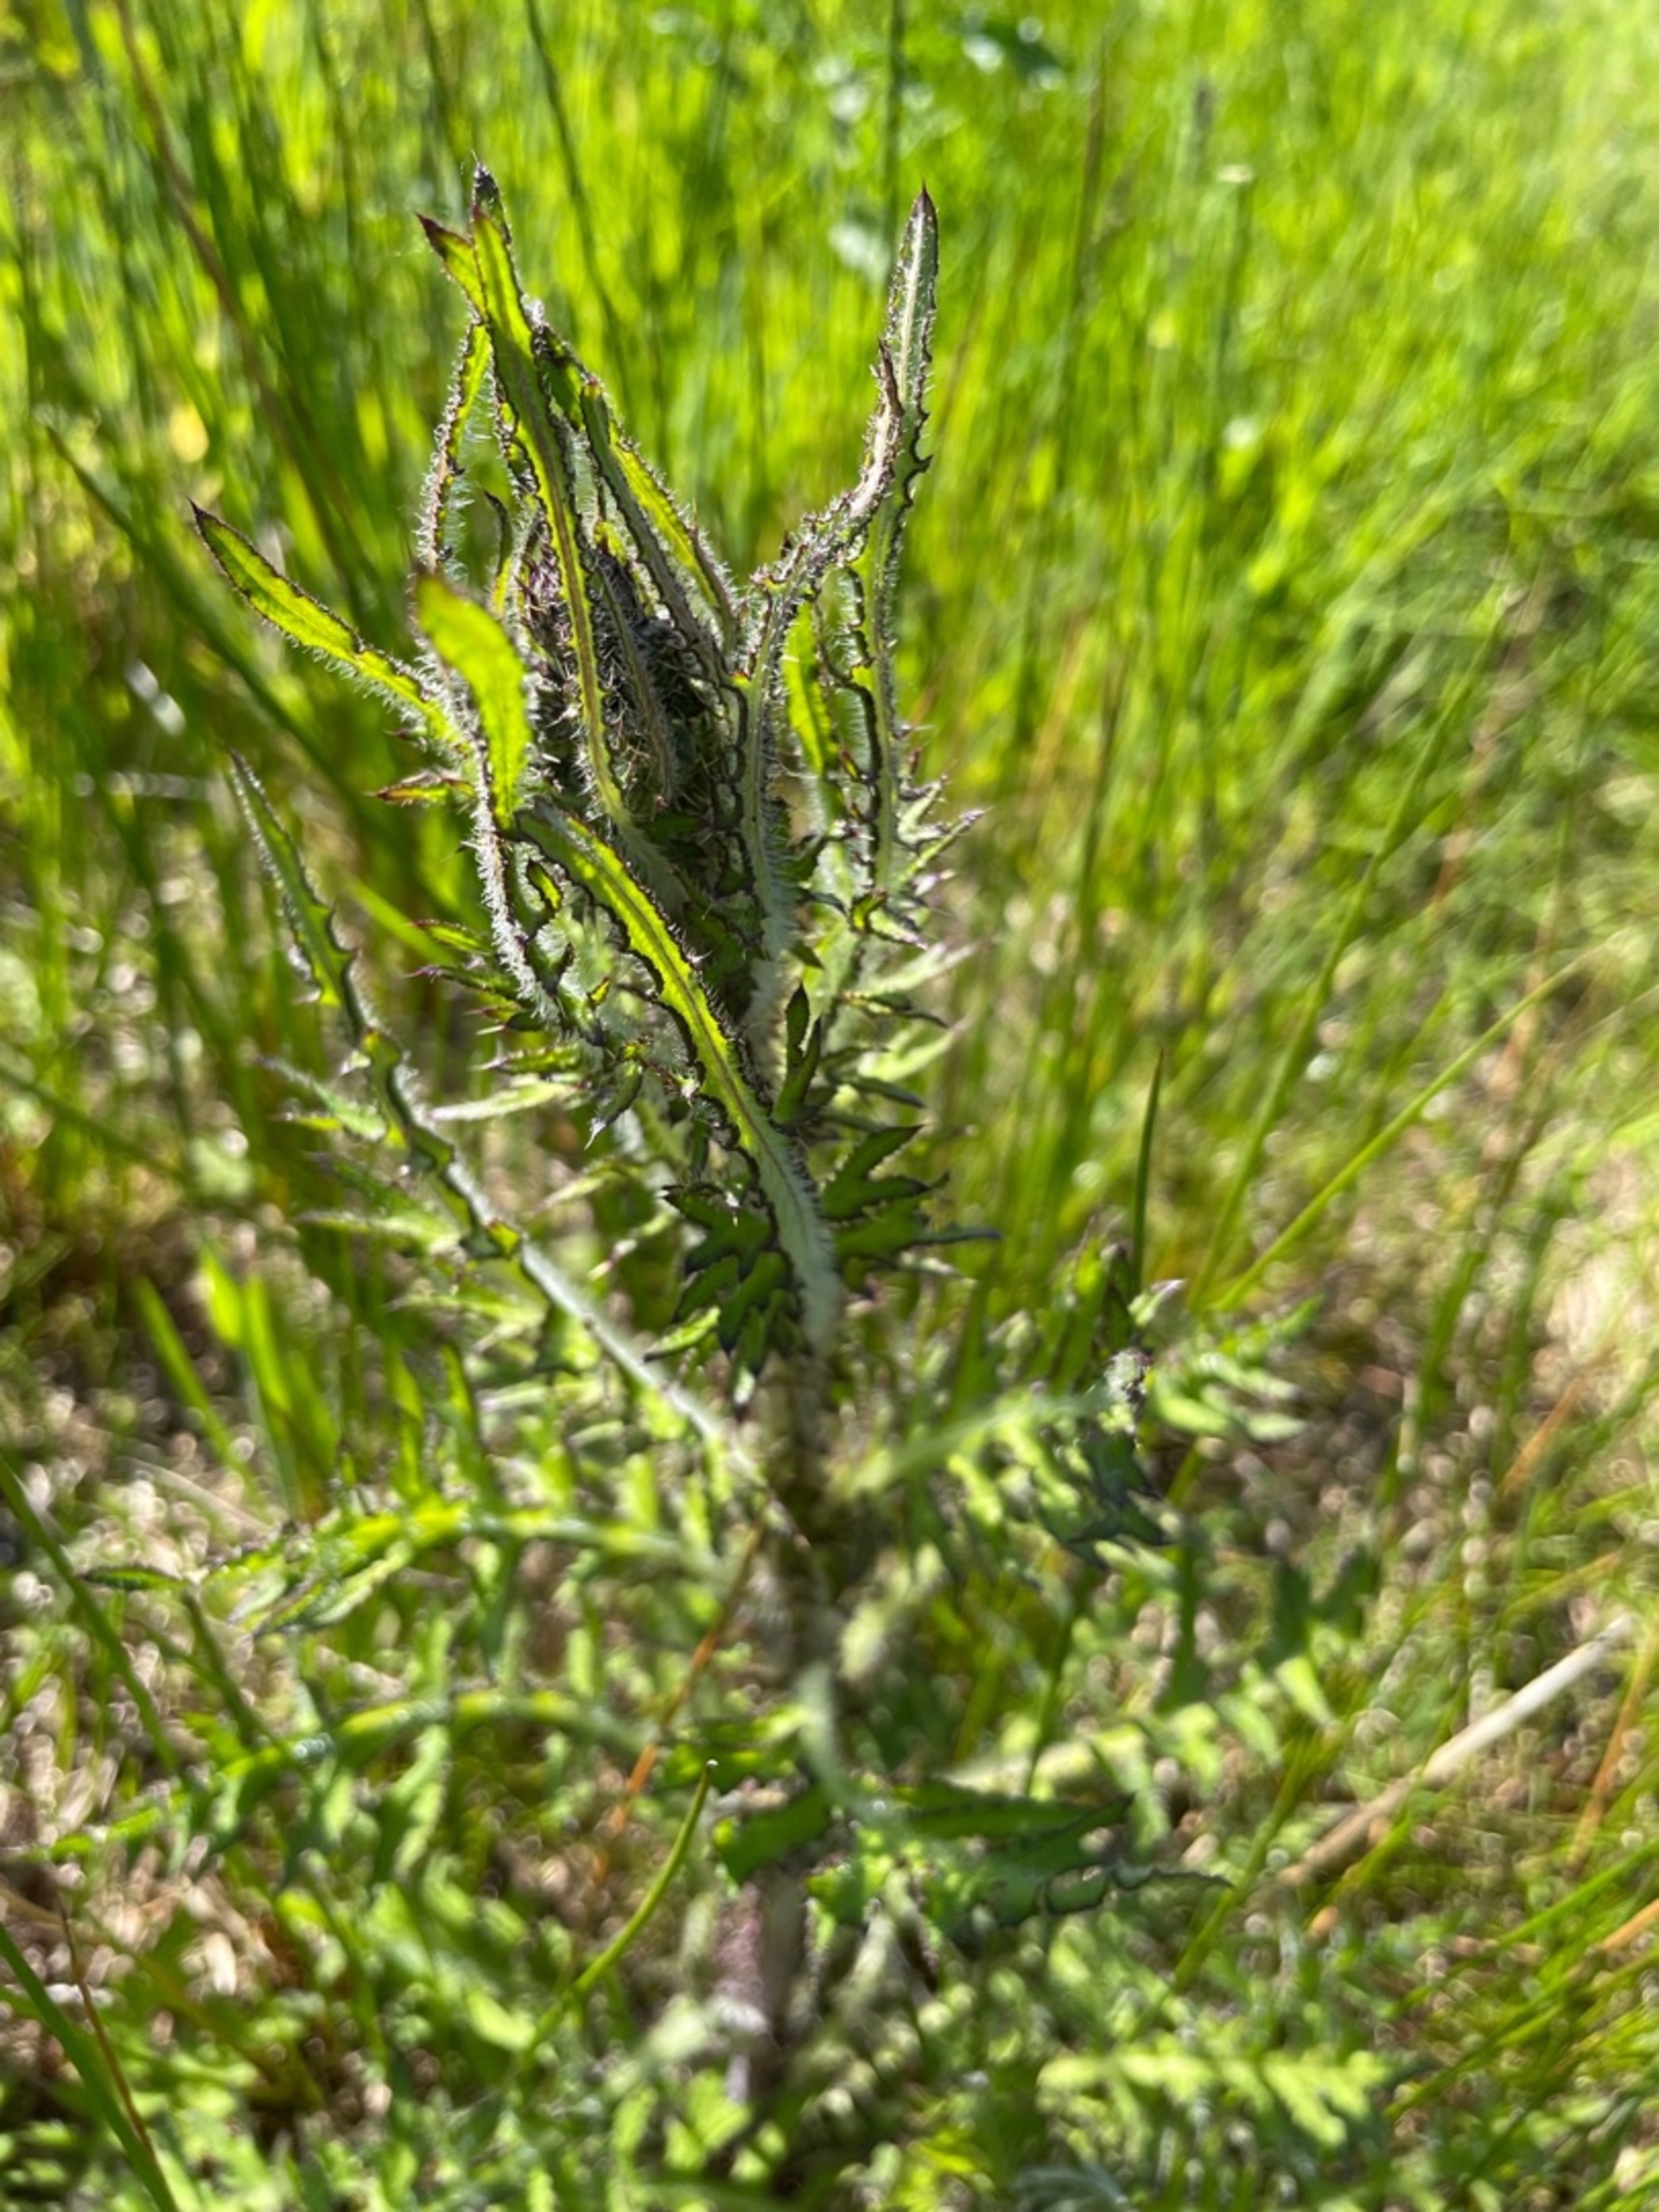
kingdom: Plantae
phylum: Tracheophyta
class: Magnoliopsida
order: Asterales
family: Asteraceae
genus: Cirsium
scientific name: Cirsium palustre
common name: Kær-tidsel
